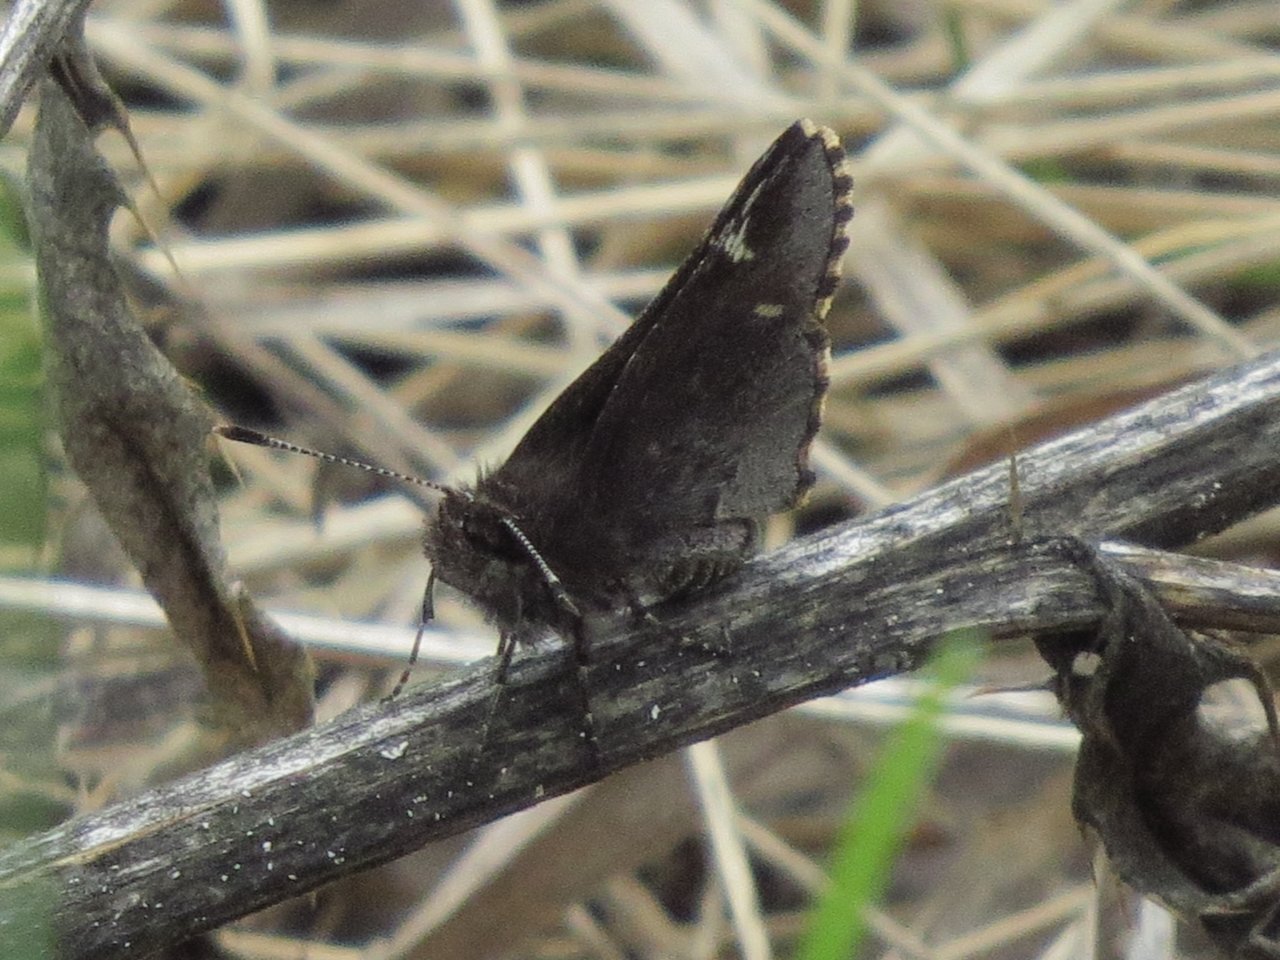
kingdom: Animalia
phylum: Arthropoda
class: Insecta
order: Lepidoptera
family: Hesperiidae
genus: Mastor
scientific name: Mastor vialis
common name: Common Roadside-Skipper
